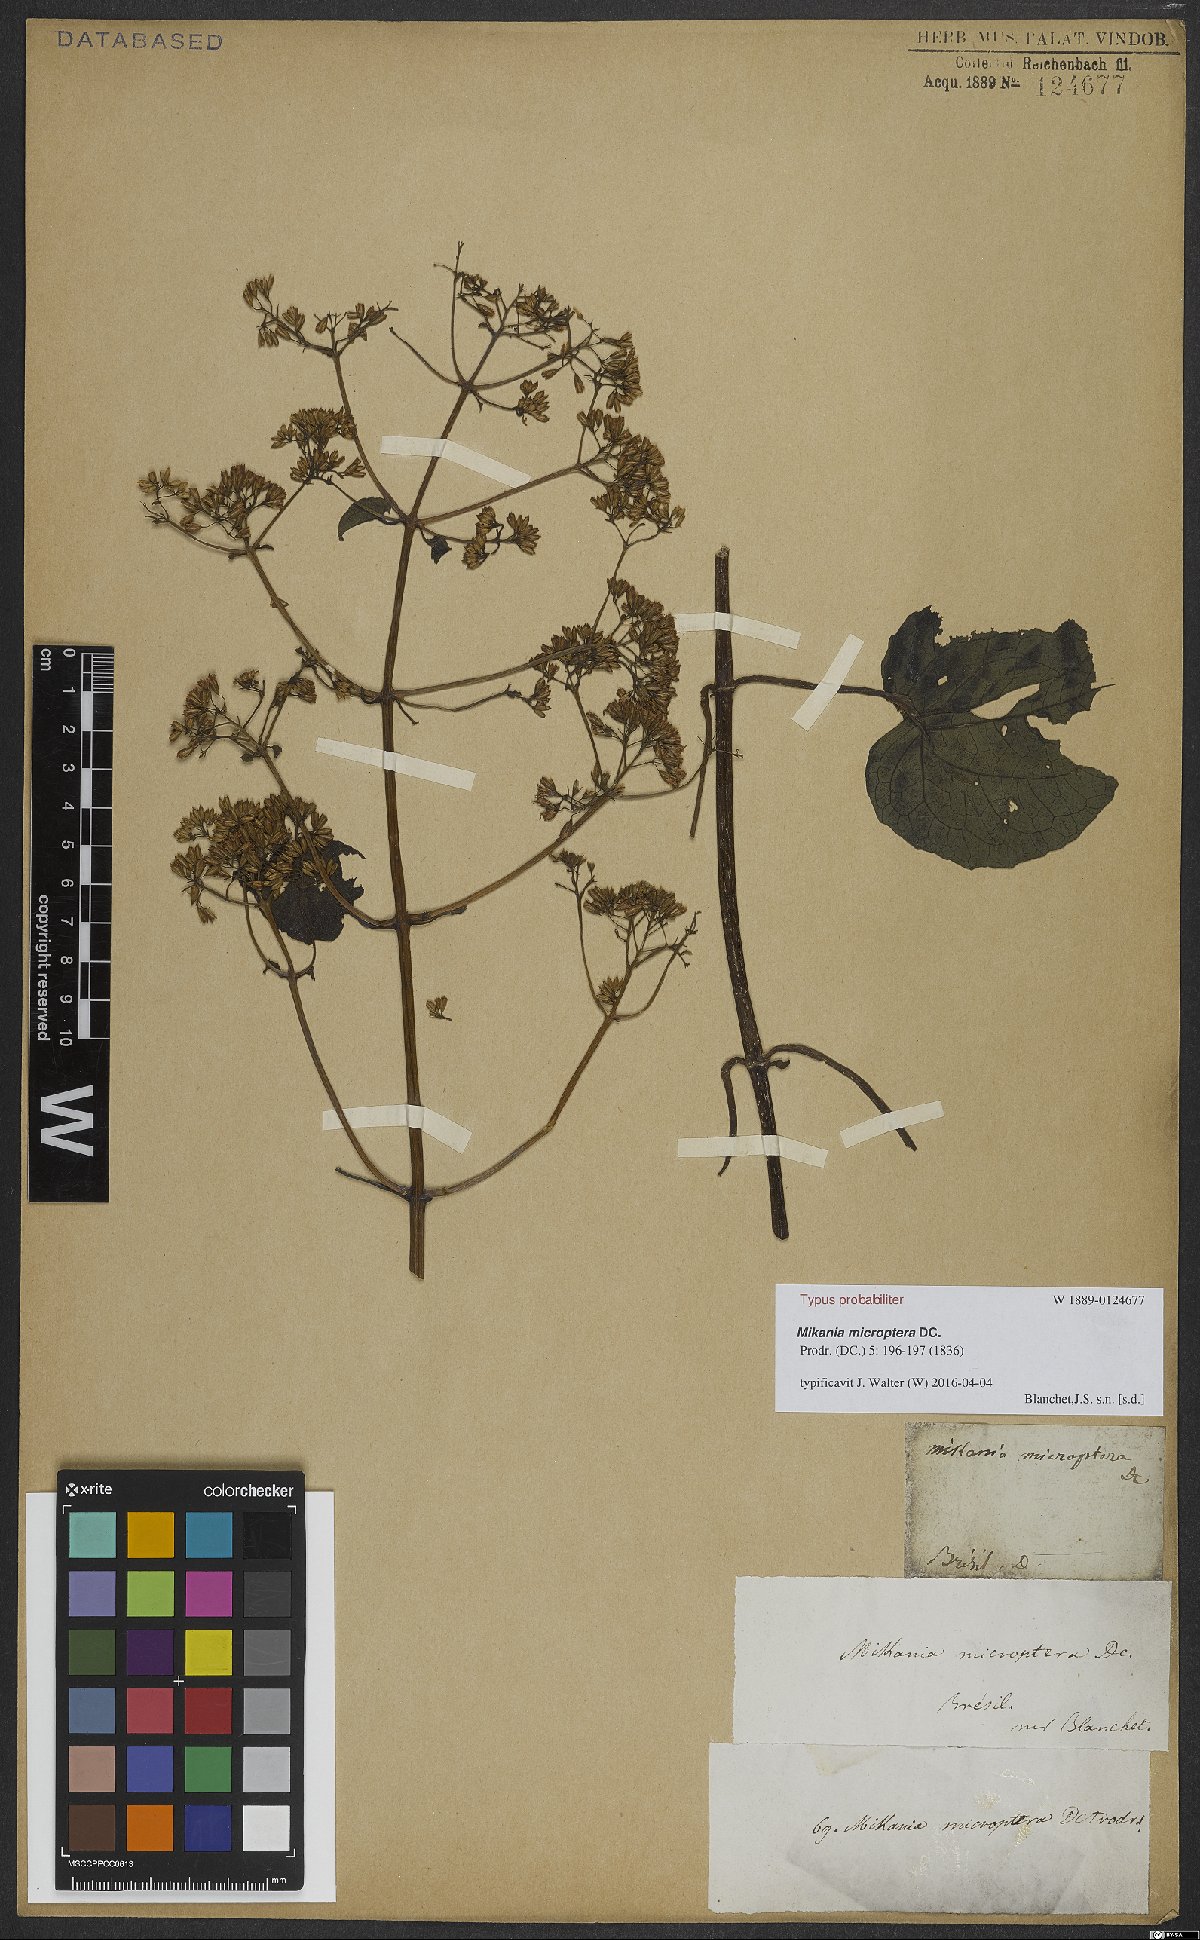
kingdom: Plantae
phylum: Tracheophyta
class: Magnoliopsida
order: Asterales
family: Asteraceae
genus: Mikania
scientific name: Mikania microptera
